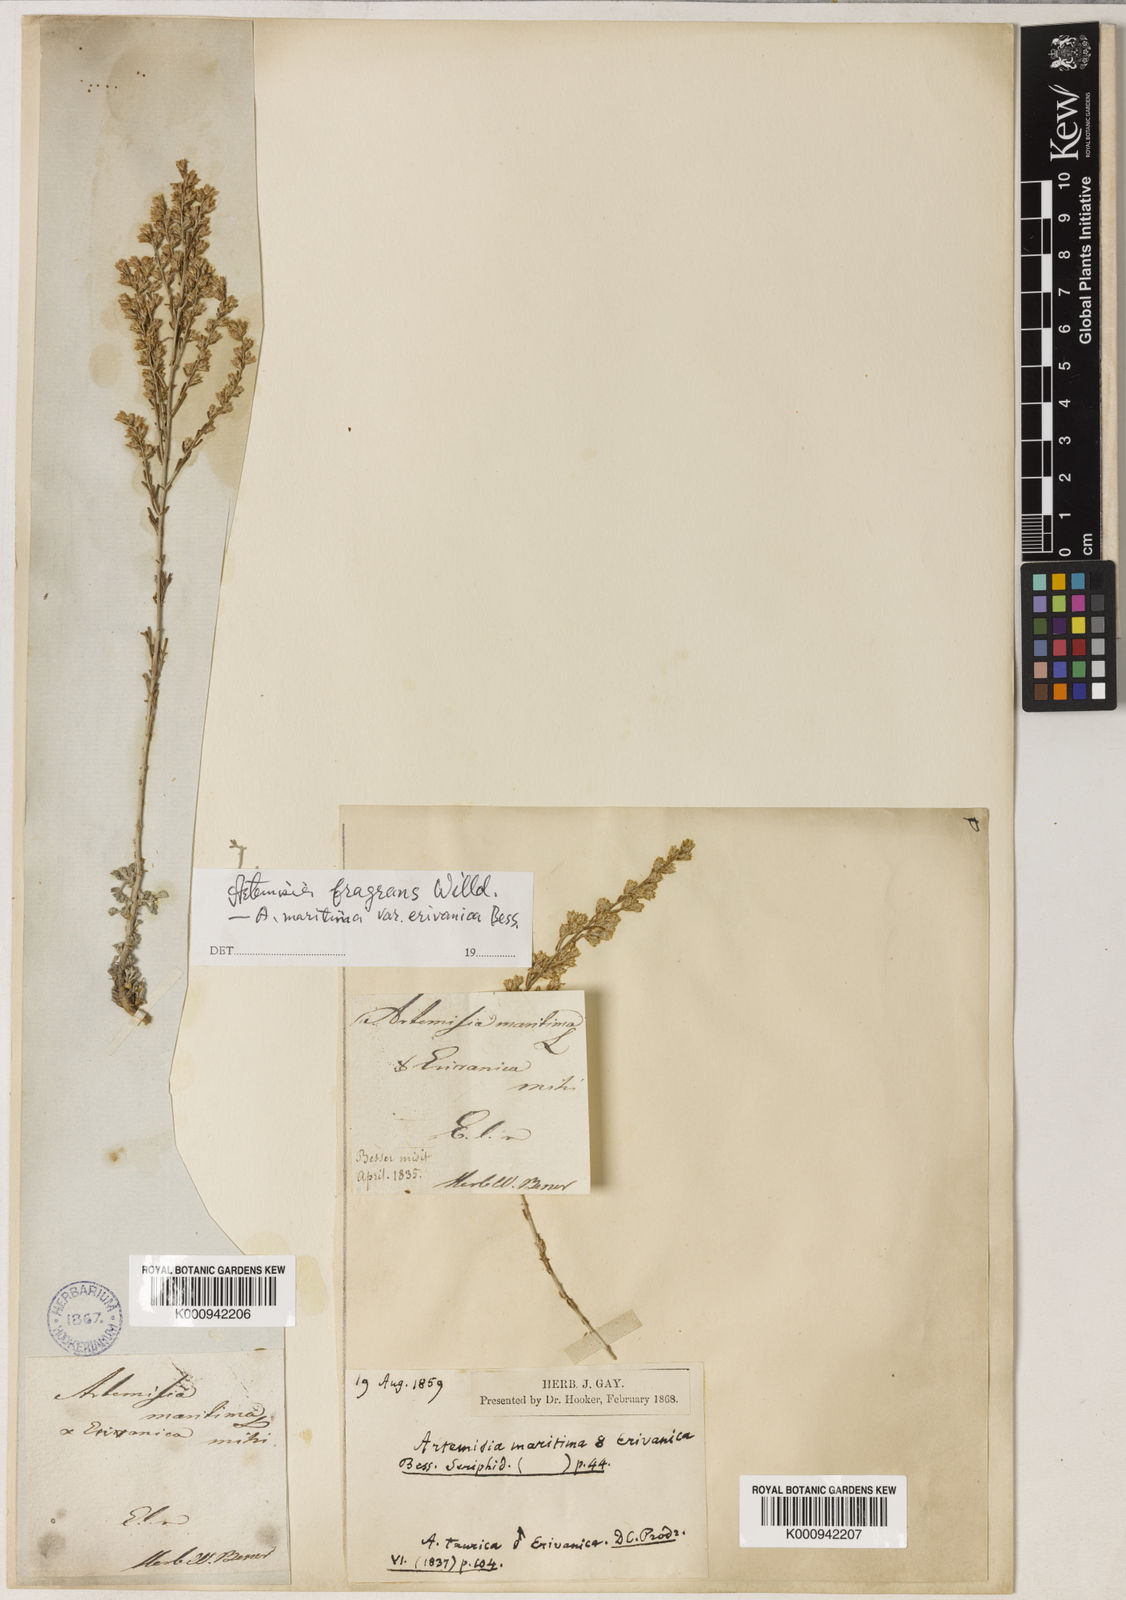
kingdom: Plantae
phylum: Tracheophyta
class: Magnoliopsida
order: Asterales
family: Asteraceae
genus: Artemisia
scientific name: Artemisia fragrans
